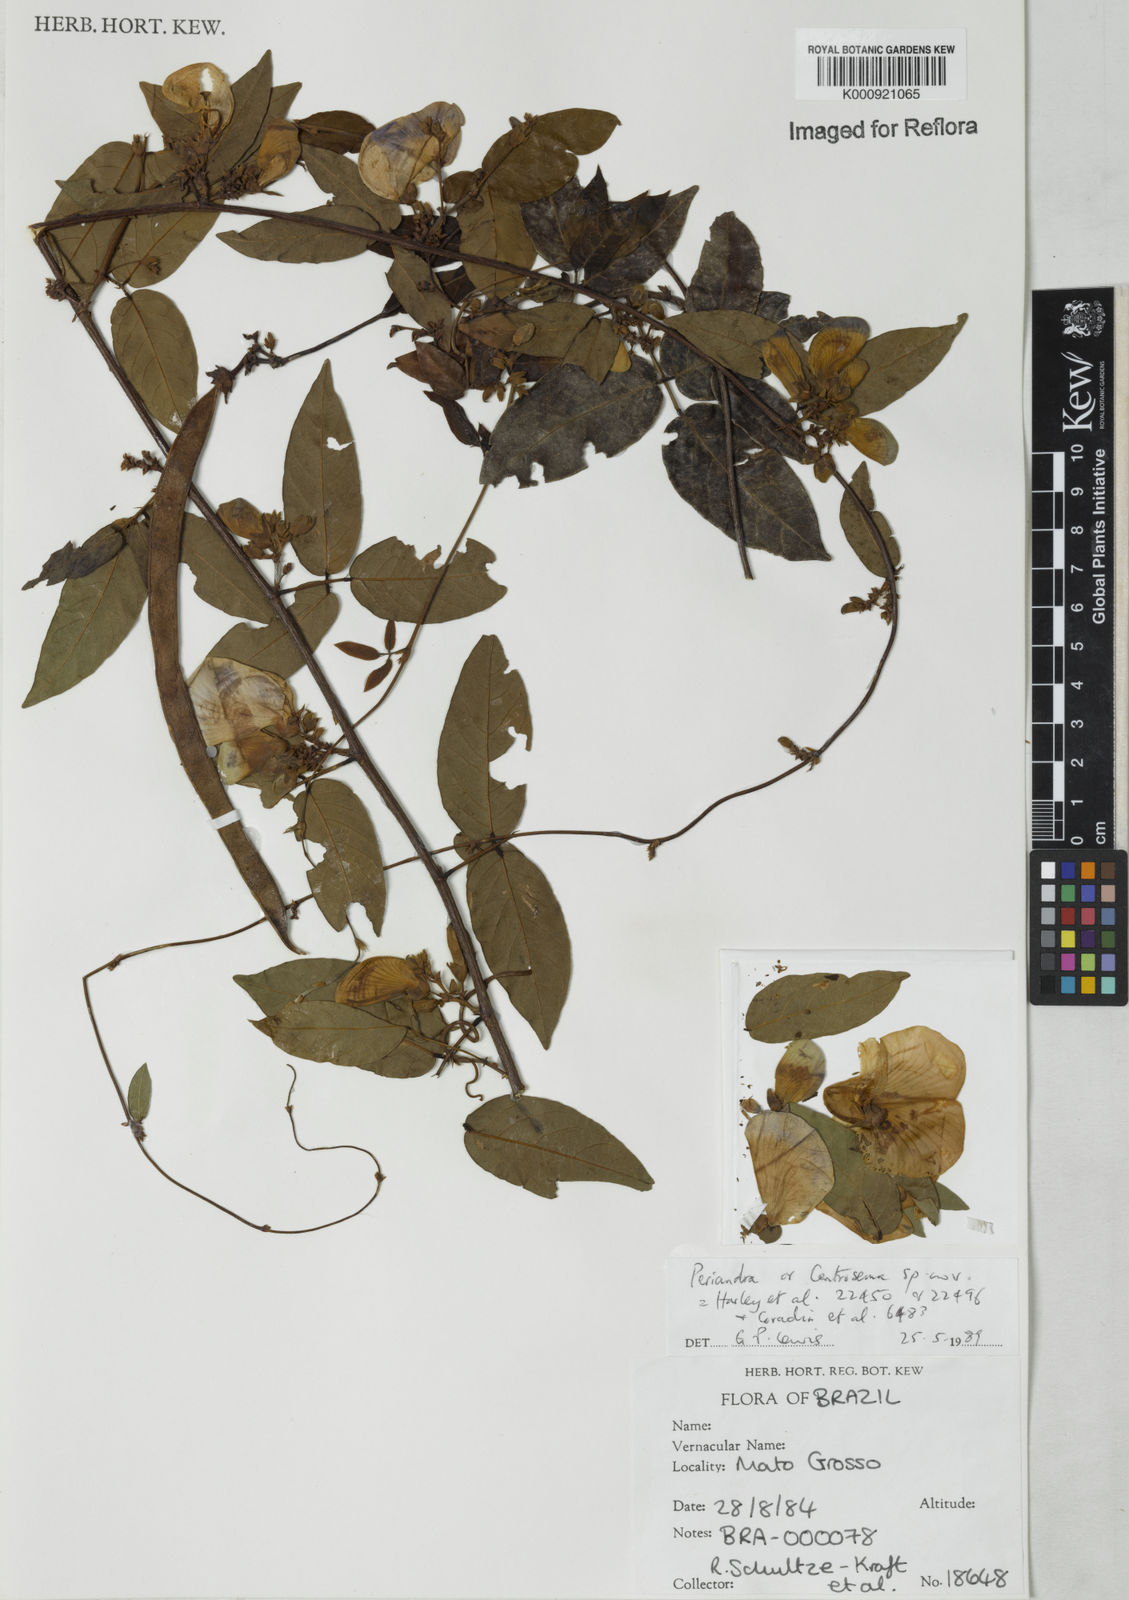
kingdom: Plantae
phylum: Tracheophyta
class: Magnoliopsida
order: Fabales
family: Fabaceae
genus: Periandra
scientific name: Periandra
